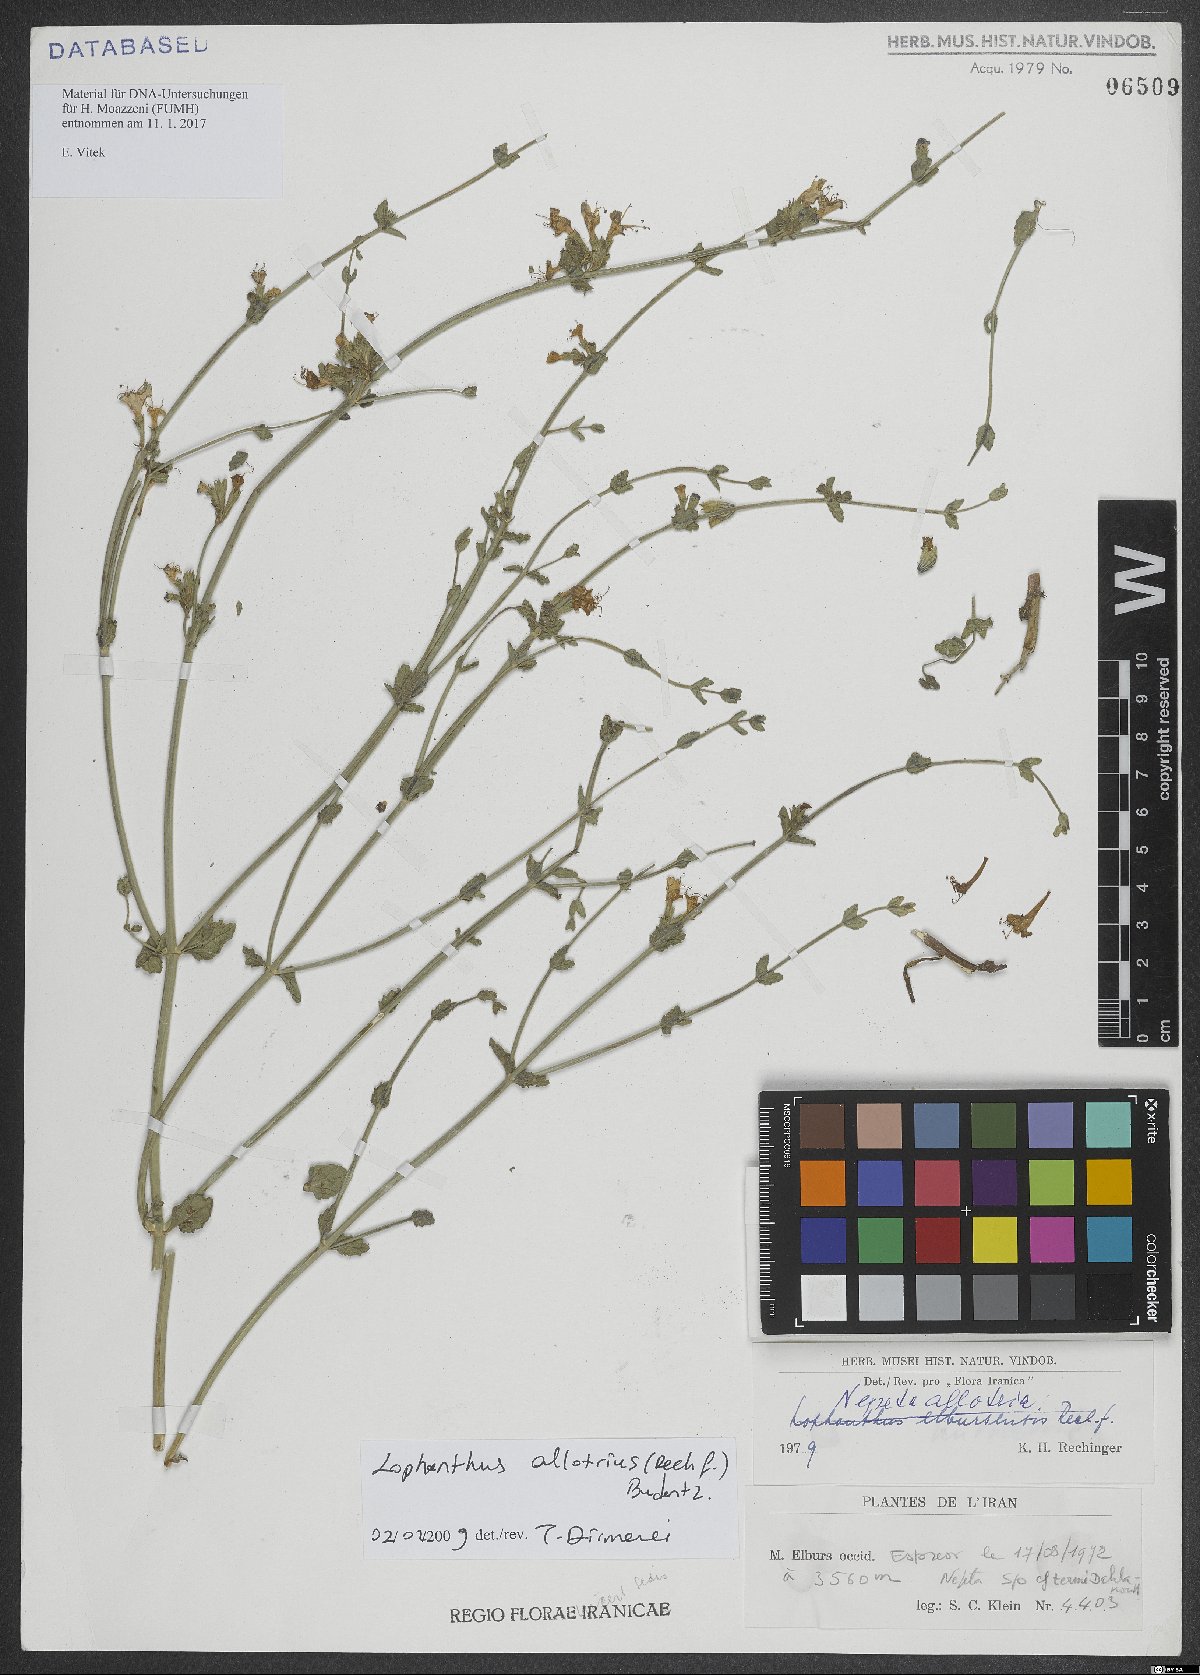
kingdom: Plantae
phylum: Tracheophyta
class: Magnoliopsida
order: Lamiales
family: Lamiaceae
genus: Nepeta
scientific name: Nepeta allotria
